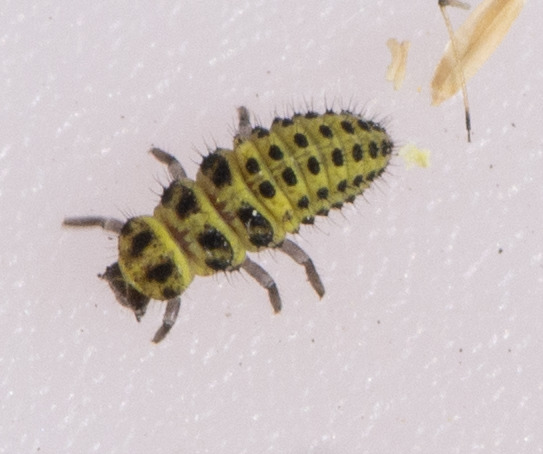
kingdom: Animalia
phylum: Arthropoda
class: Insecta
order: Coleoptera
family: Coccinellidae
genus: Psyllobora
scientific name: Psyllobora vigintiduopunctata
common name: Toogtyveplettet mariehøne
